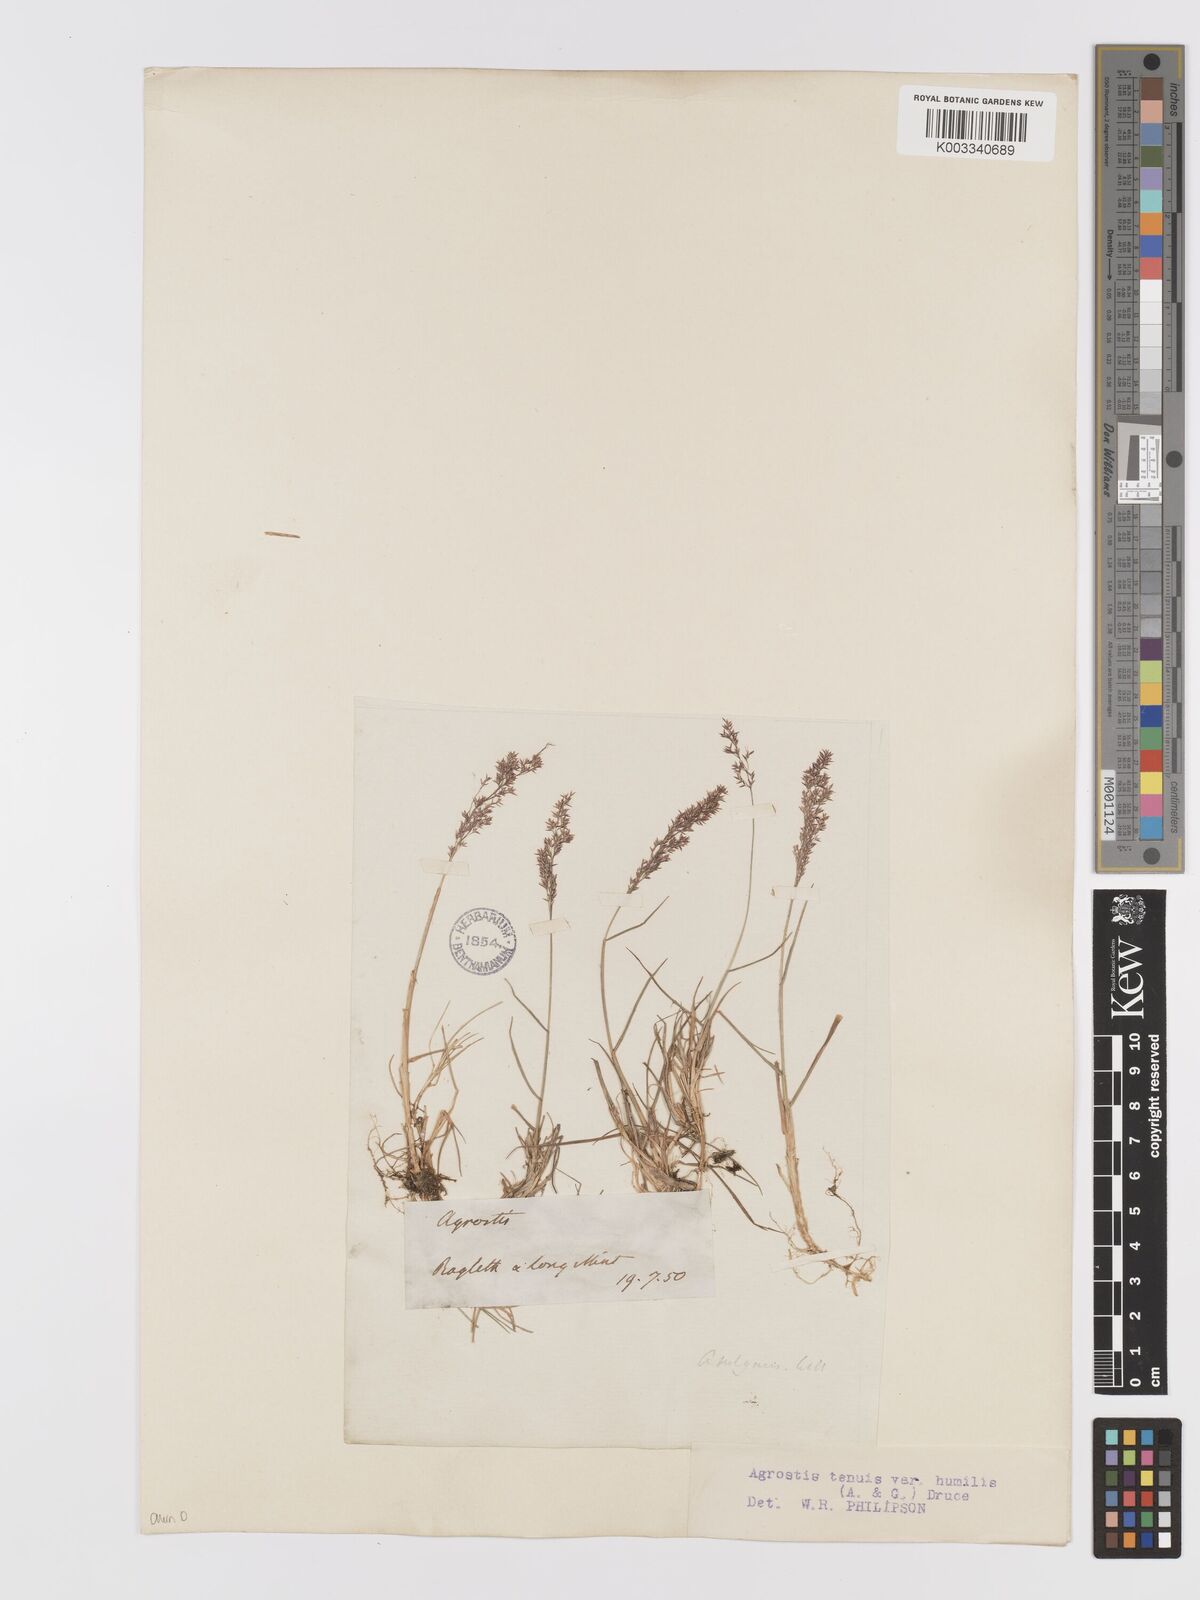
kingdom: Plantae
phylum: Tracheophyta
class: Liliopsida
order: Poales
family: Poaceae
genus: Agrostis
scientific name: Agrostis capillaris
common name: Colonial bentgrass
